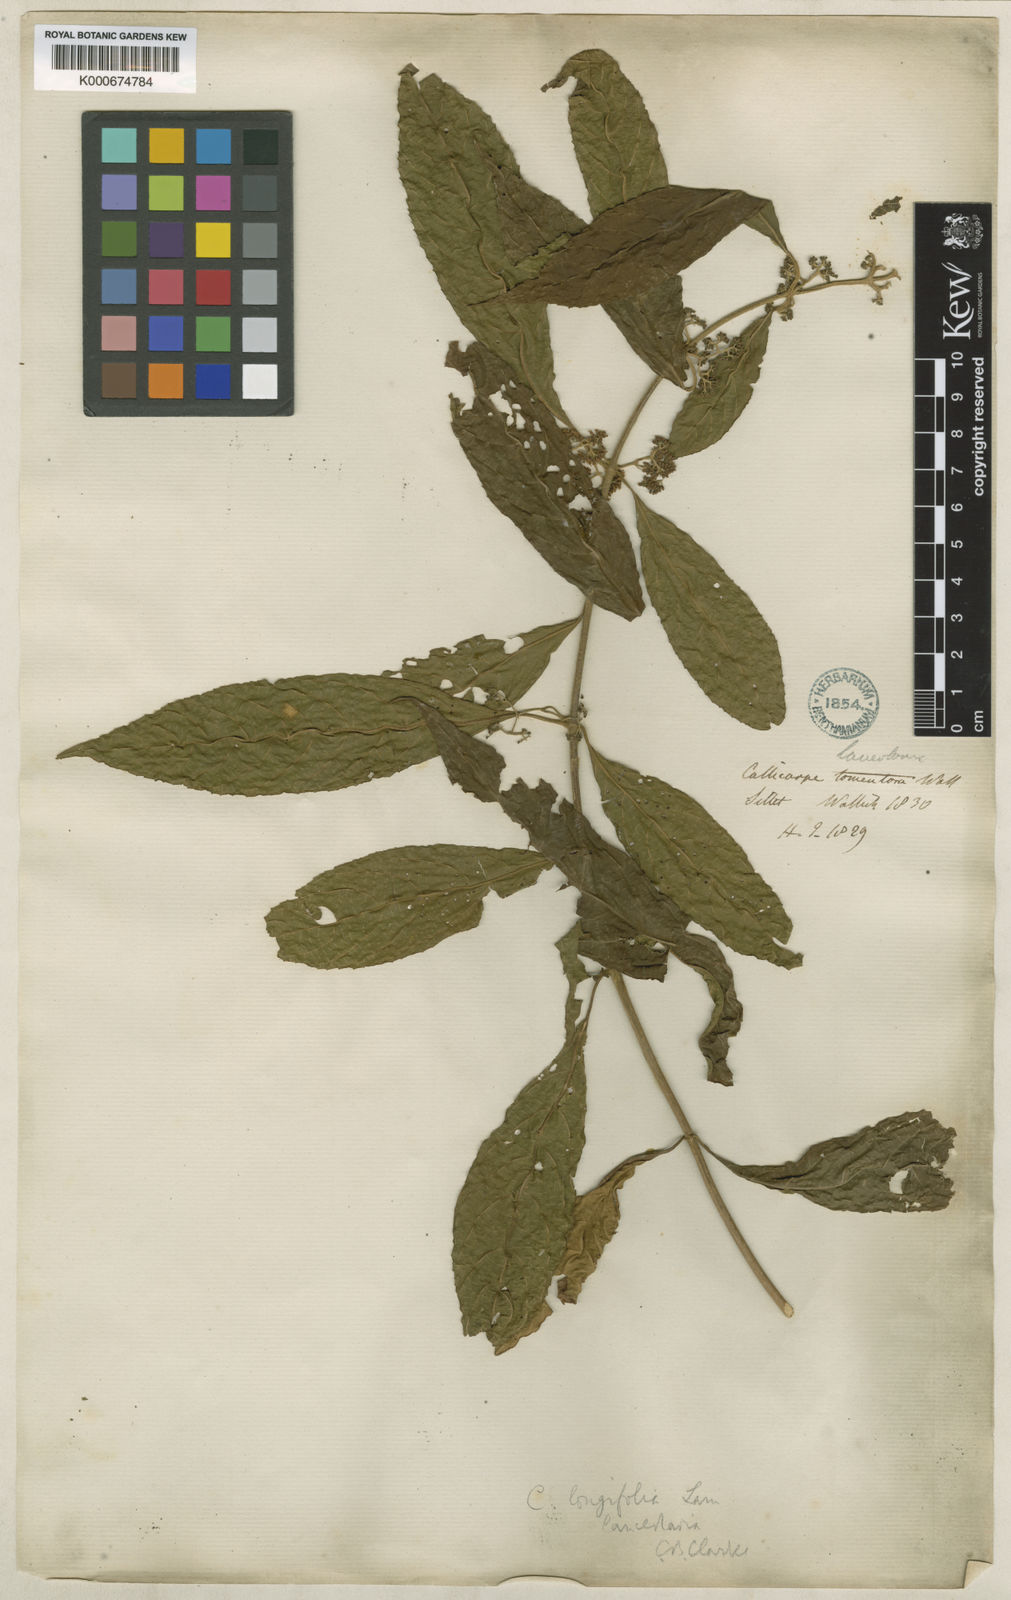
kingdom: Plantae
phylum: Tracheophyta
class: Magnoliopsida
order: Lamiales
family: Lamiaceae
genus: Callicarpa
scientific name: Callicarpa longifolia
